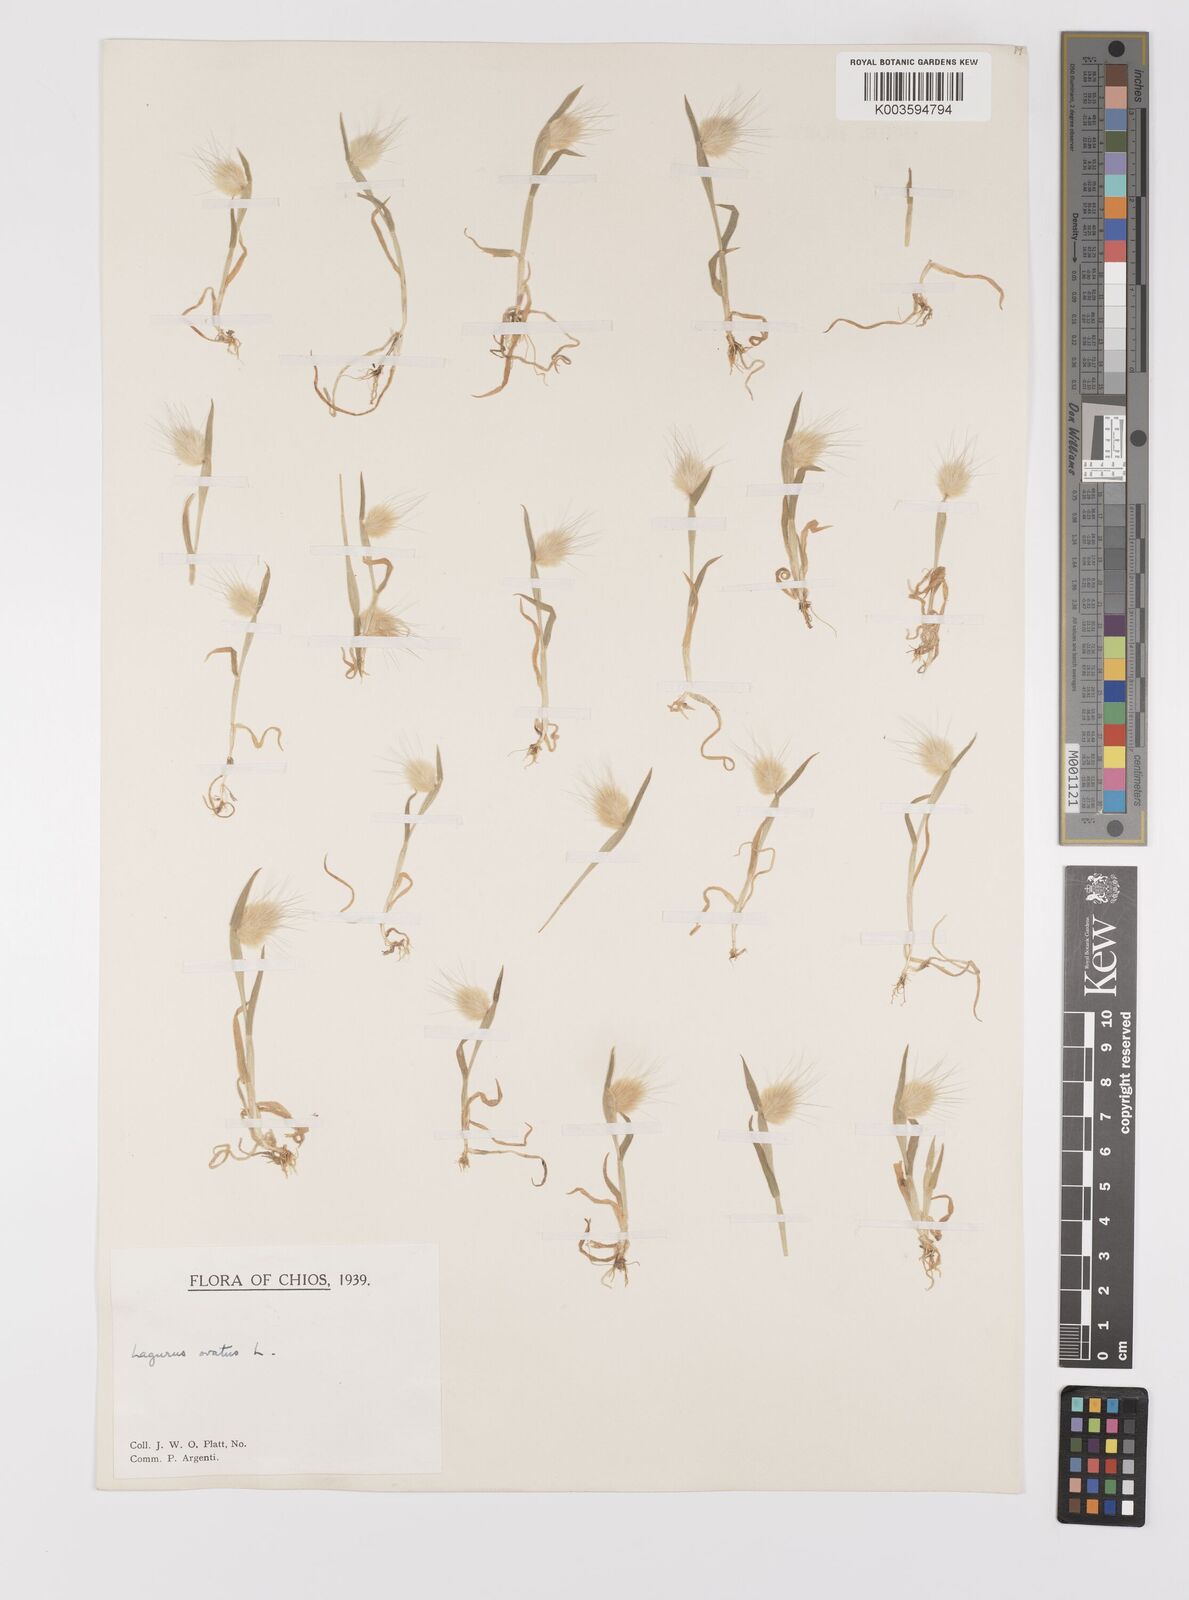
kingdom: Plantae
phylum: Tracheophyta
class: Liliopsida
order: Poales
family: Poaceae
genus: Lagurus
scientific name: Lagurus ovatus
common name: Hare's-tail
